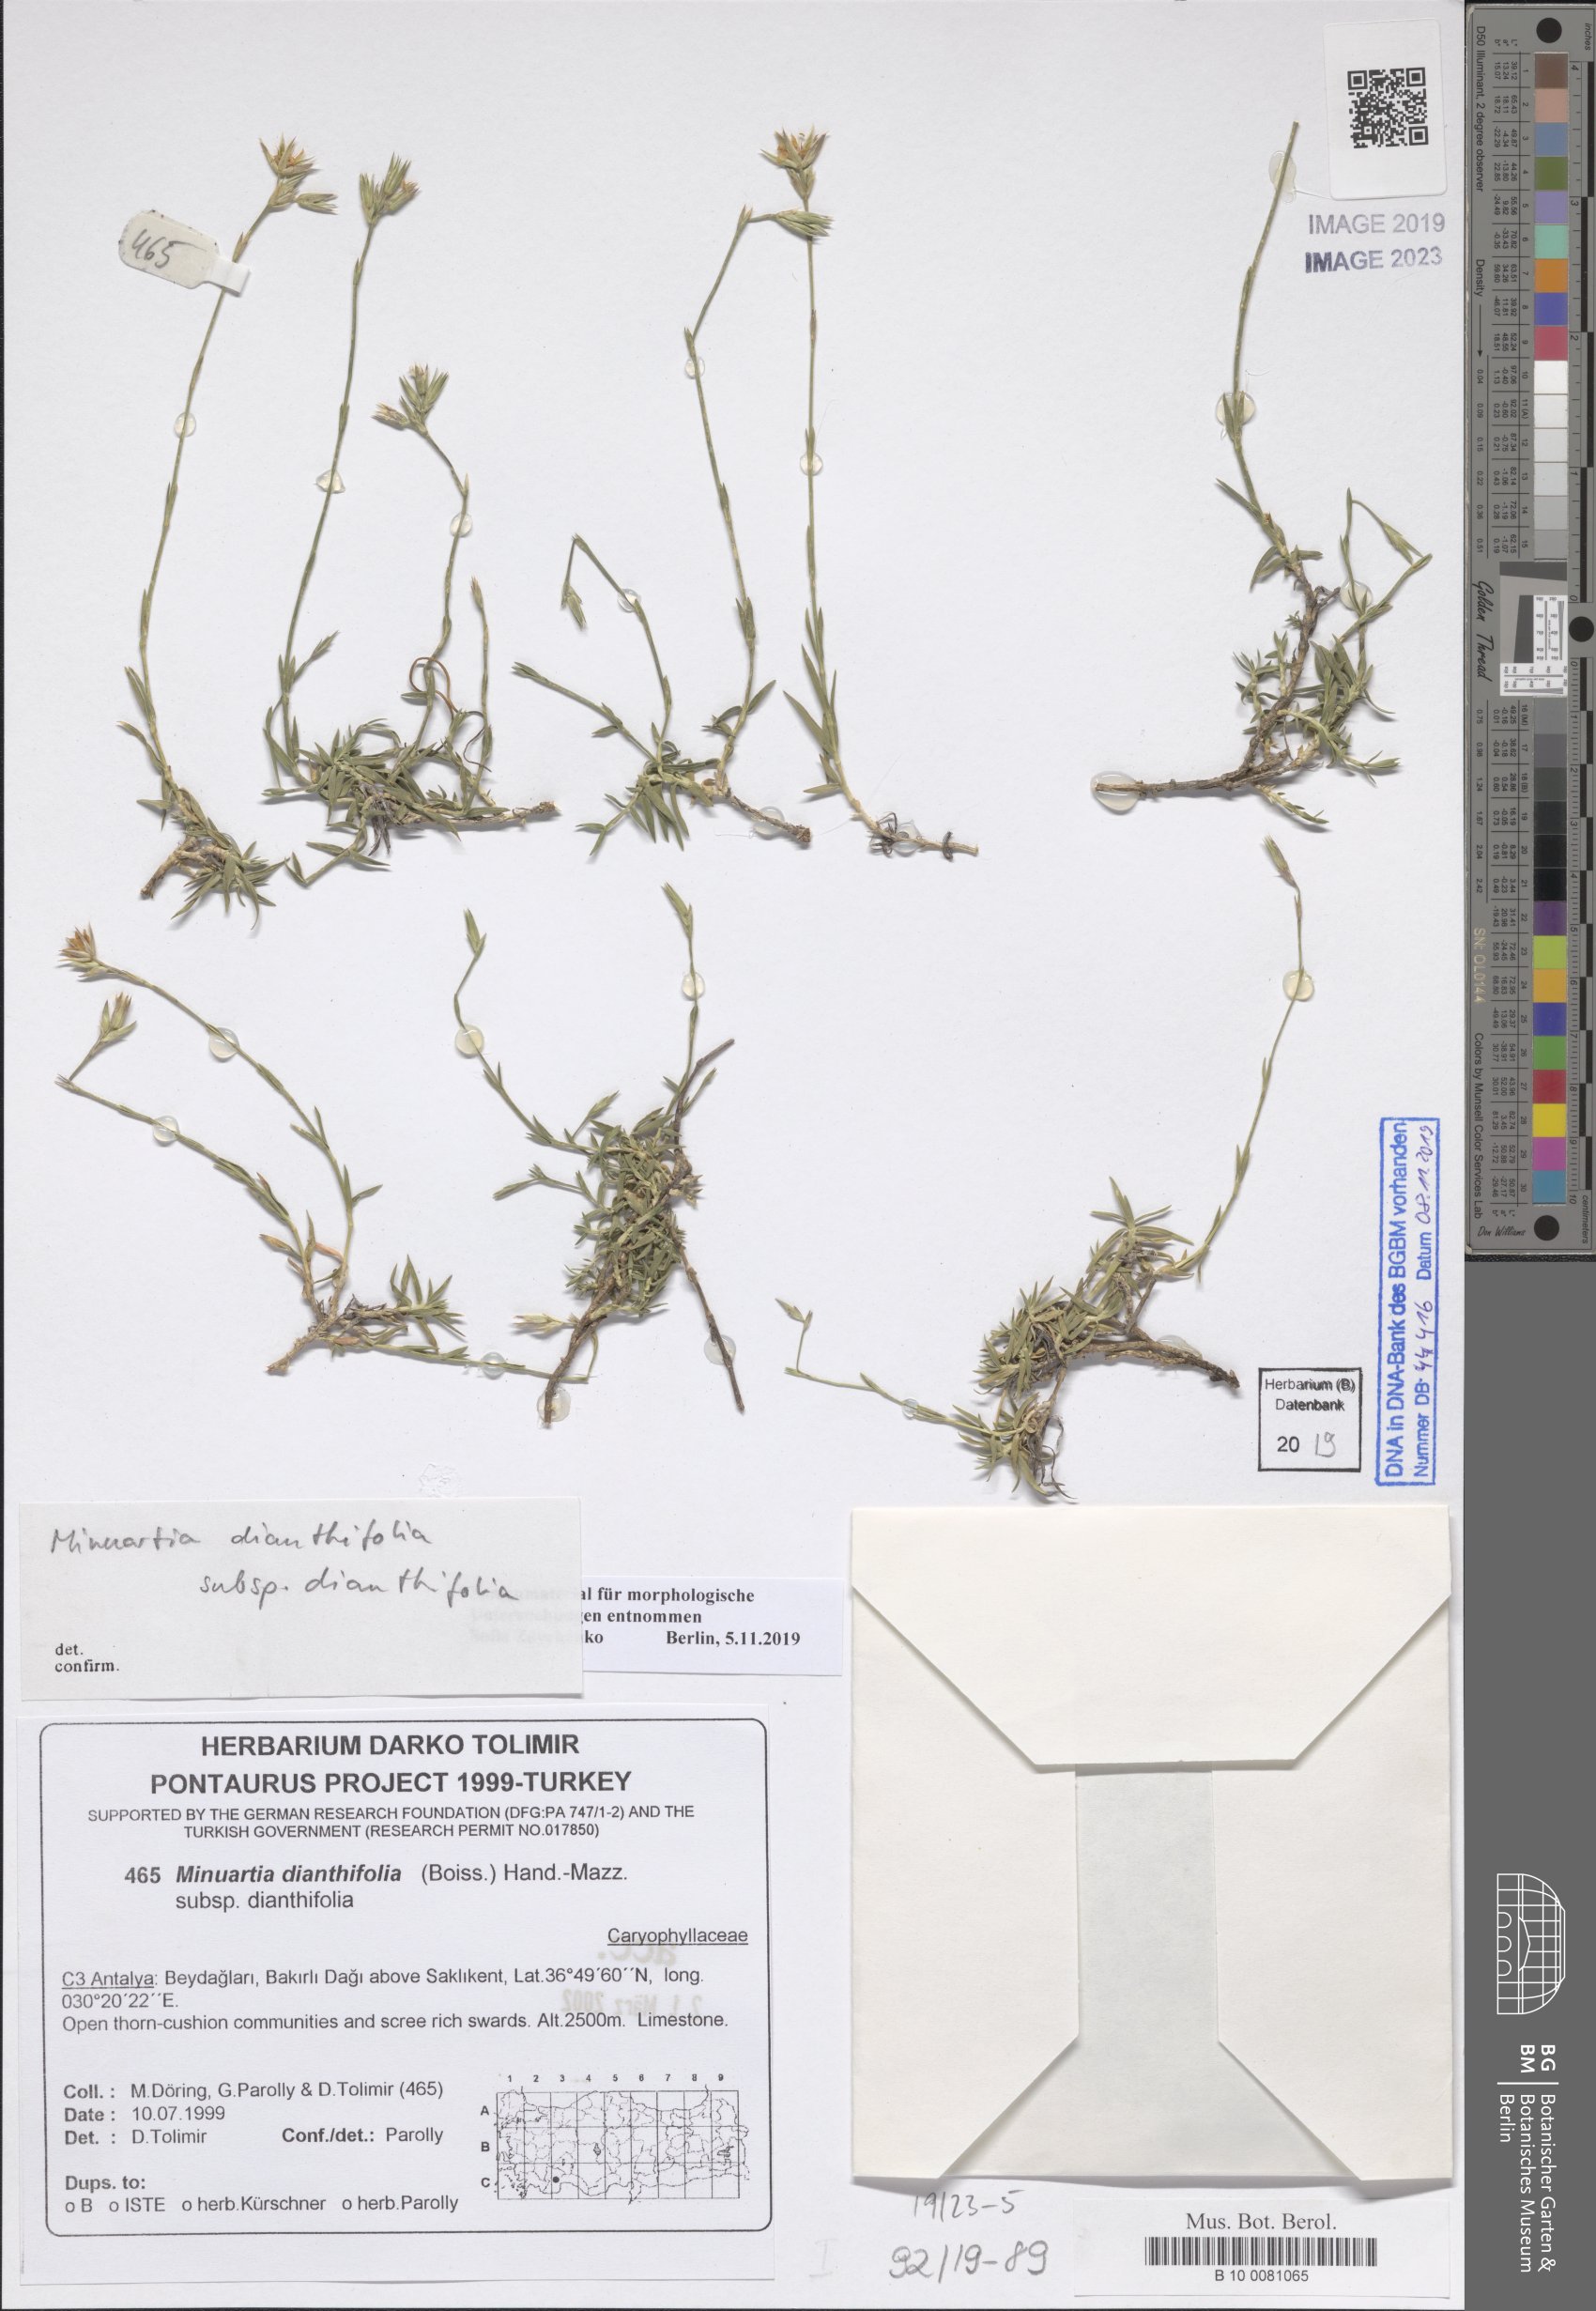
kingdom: Plantae
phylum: Tracheophyta
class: Magnoliopsida
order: Caryophyllales
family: Caryophyllaceae
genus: Minuartiella
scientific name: Minuartiella dianthifolia
